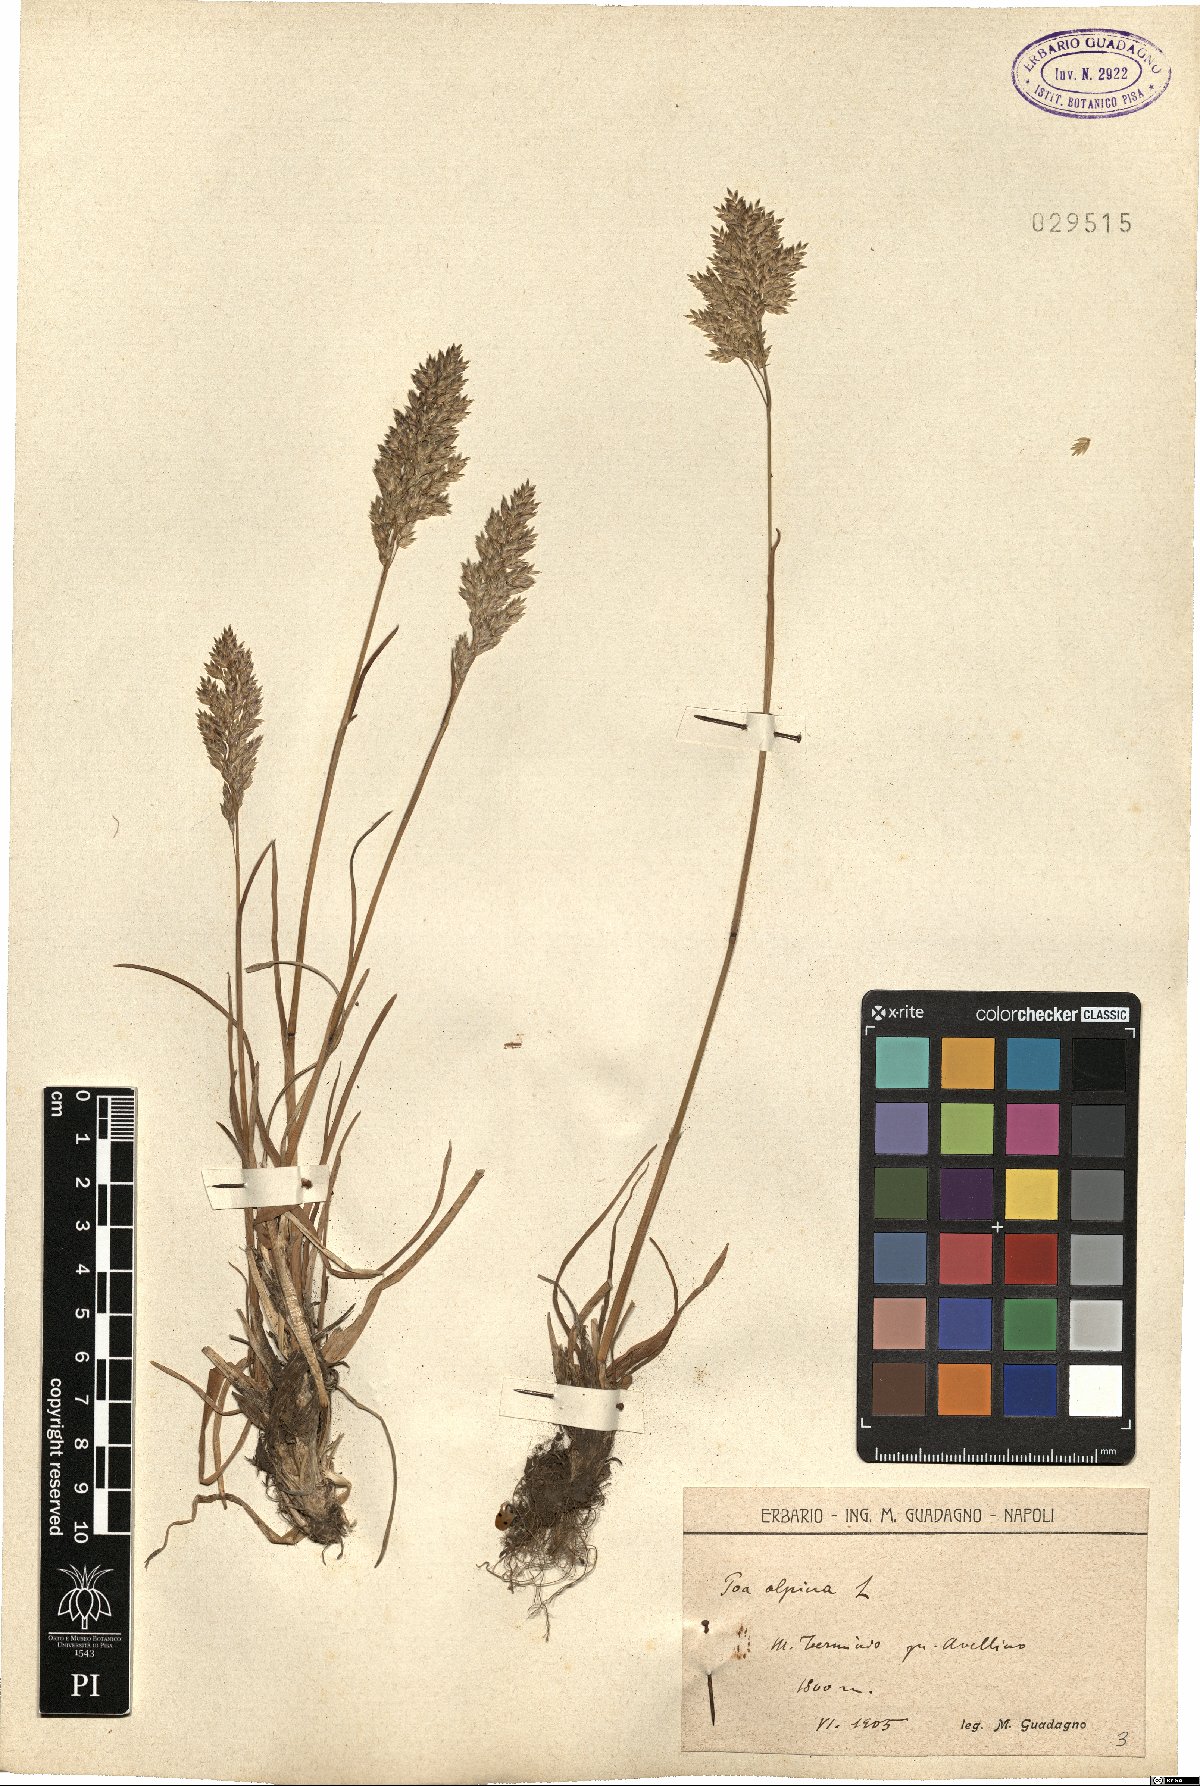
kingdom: Plantae
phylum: Tracheophyta
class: Liliopsida
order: Poales
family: Poaceae
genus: Poa
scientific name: Poa alpina
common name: Alpine bluegrass
